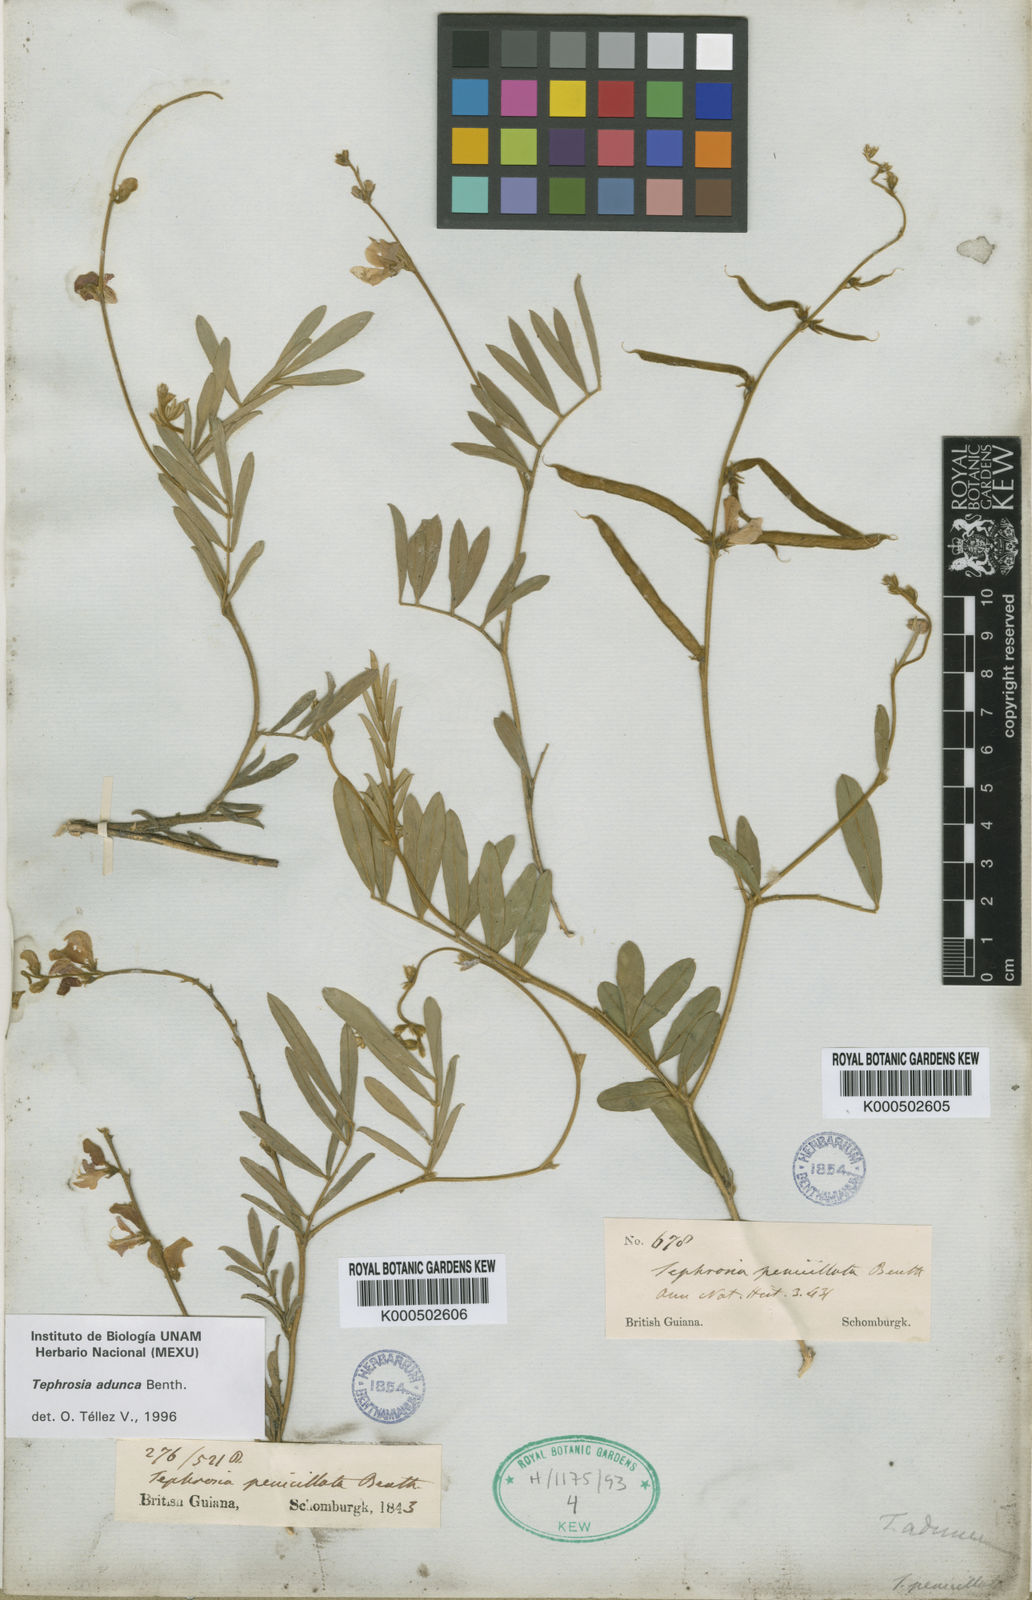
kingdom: Plantae
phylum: Tracheophyta
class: Magnoliopsida
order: Fabales
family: Fabaceae
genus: Tephrosia
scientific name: Tephrosia adunca
